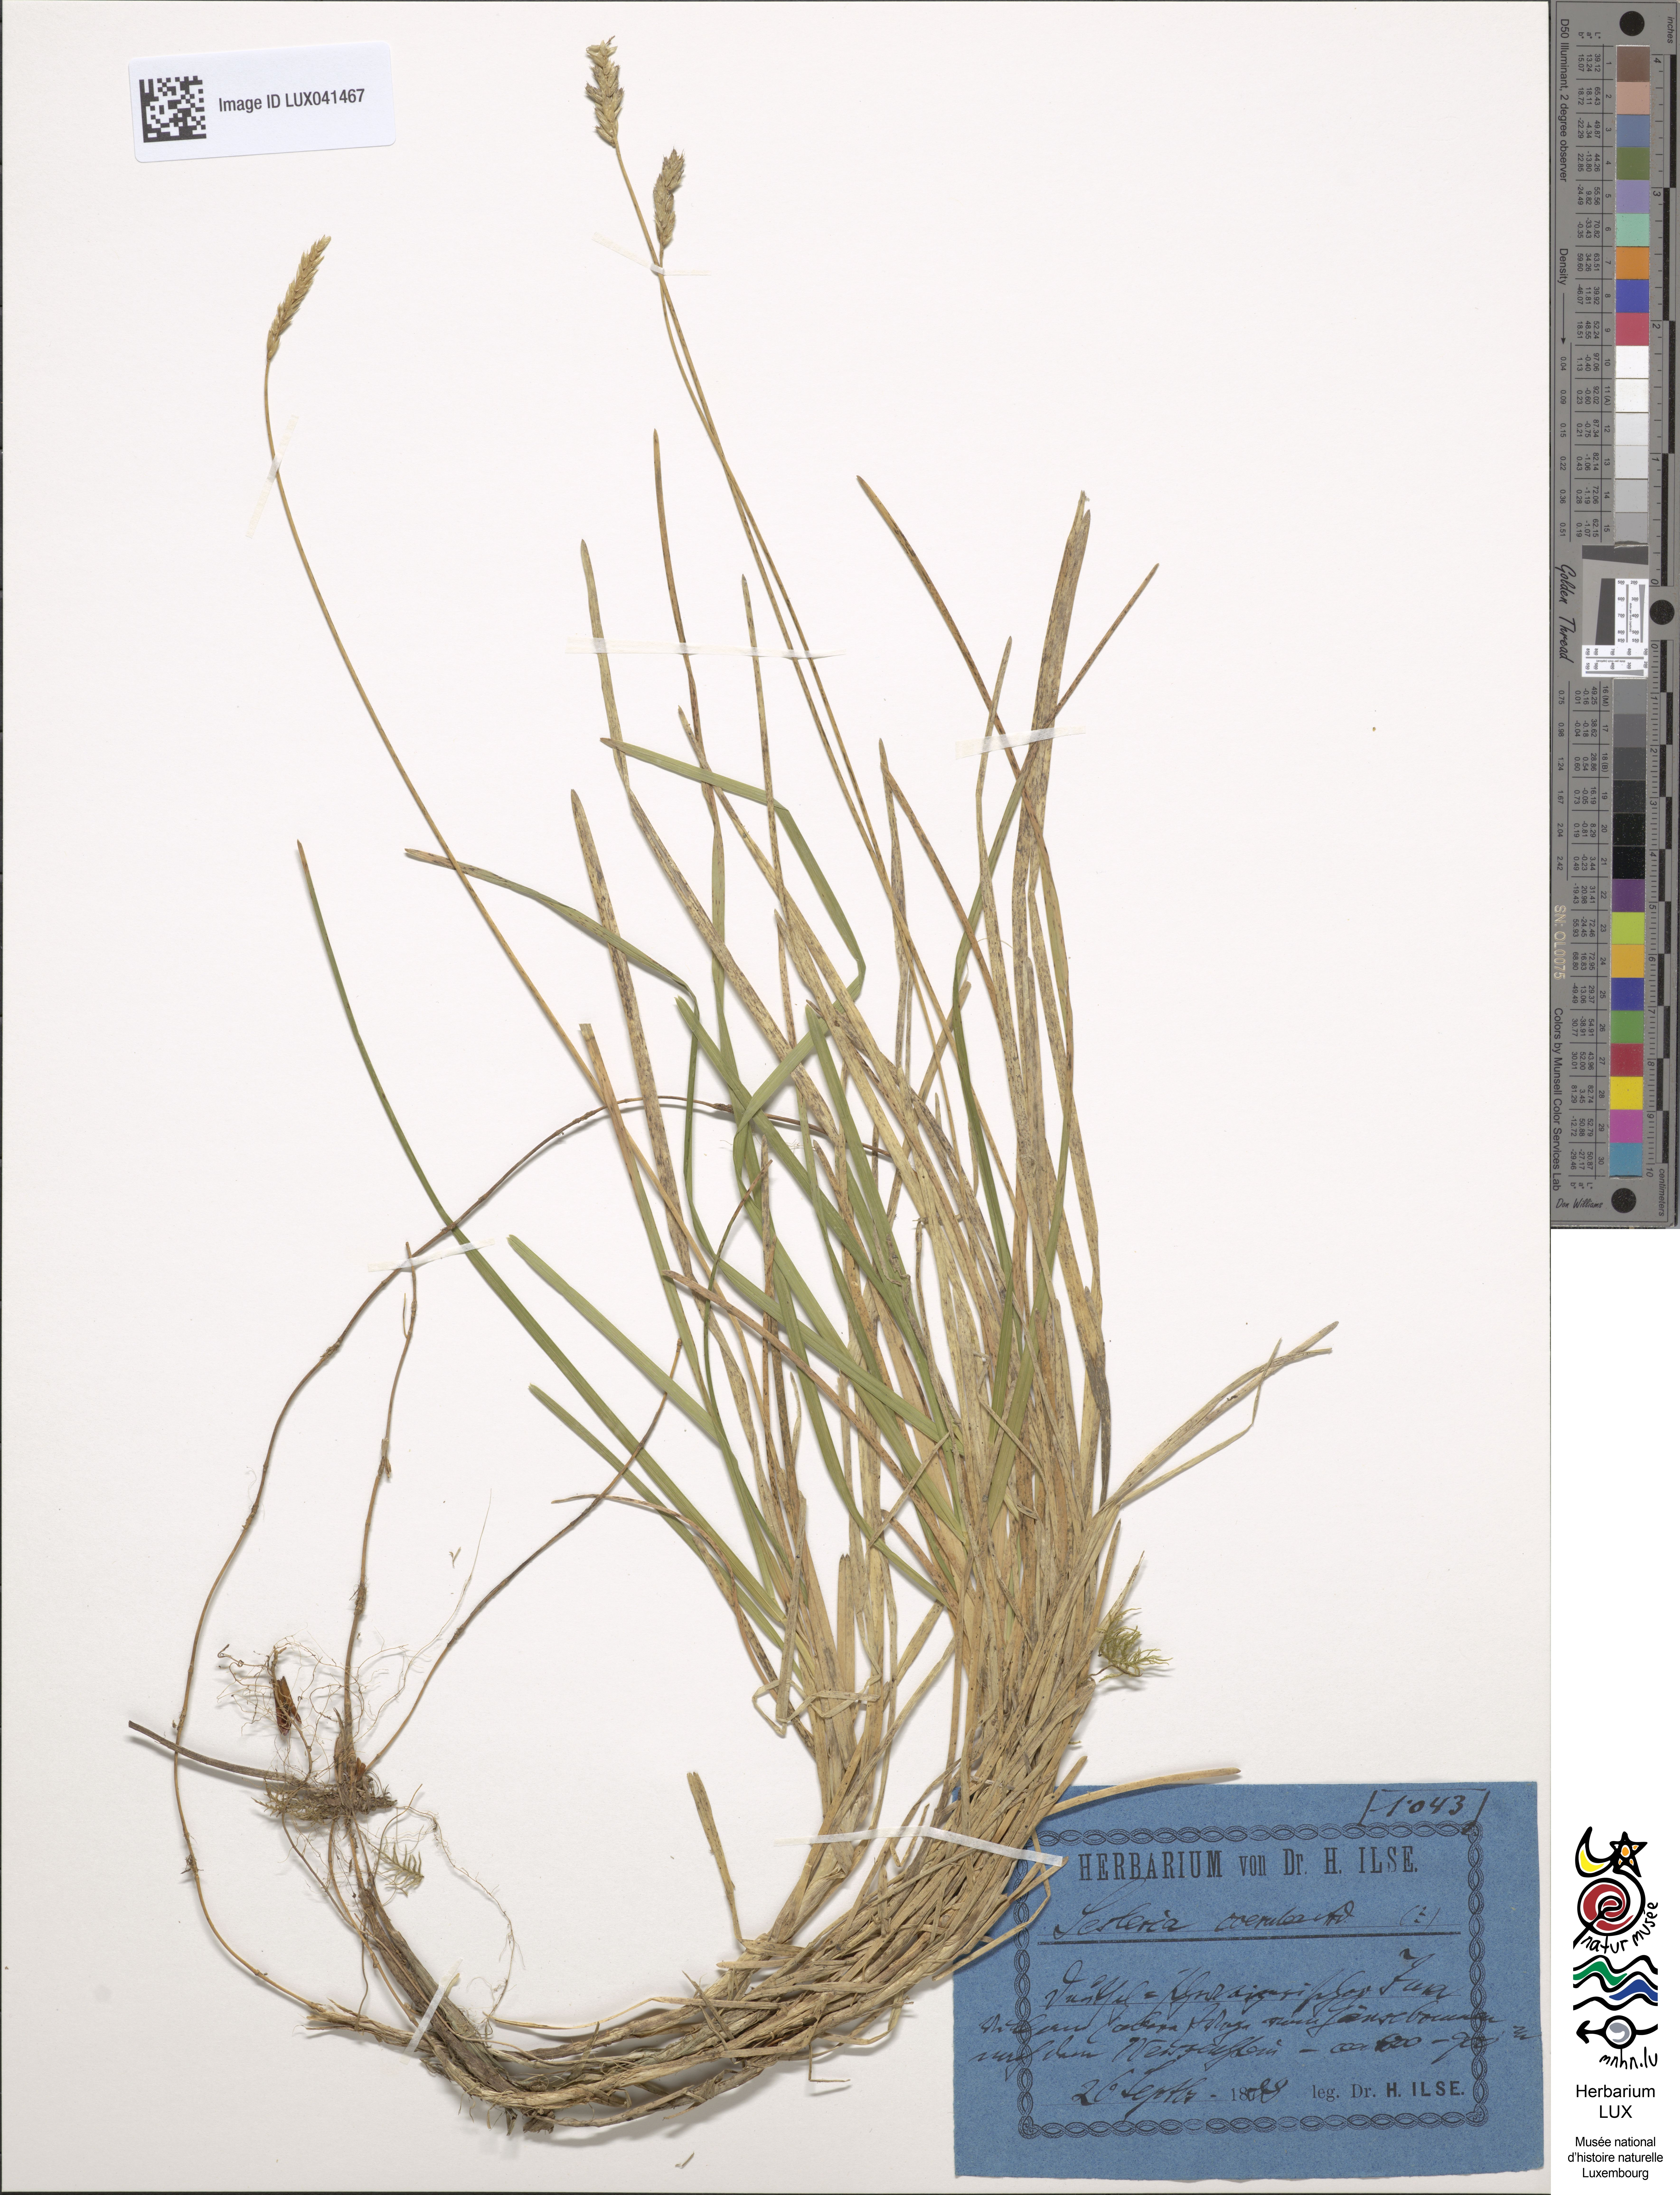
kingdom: Plantae
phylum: Tracheophyta
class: Liliopsida
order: Poales
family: Poaceae
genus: Sesleria
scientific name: Sesleria caerulea
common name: Blue moor-grass
